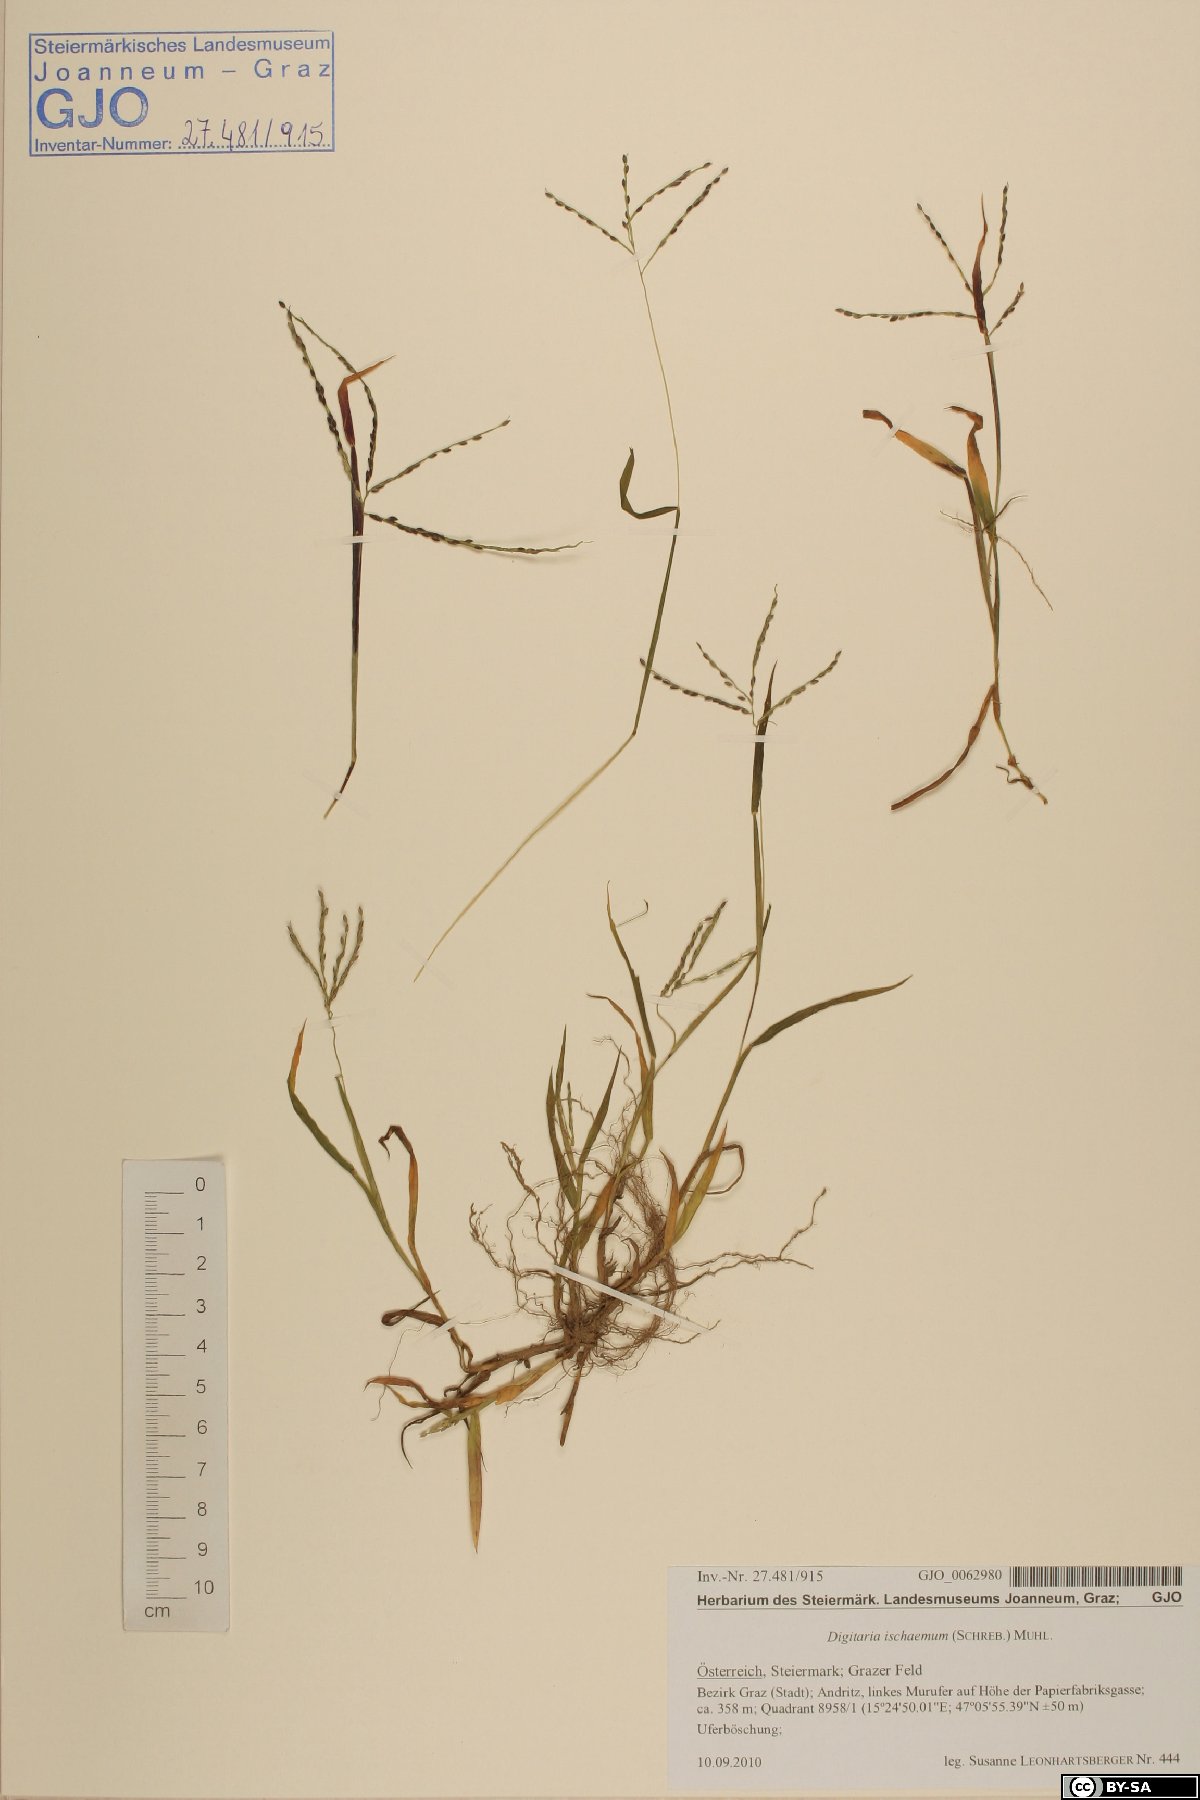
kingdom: Plantae
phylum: Tracheophyta
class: Liliopsida
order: Poales
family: Poaceae
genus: Digitaria
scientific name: Digitaria ischaemum
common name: Smooth crabgrass
